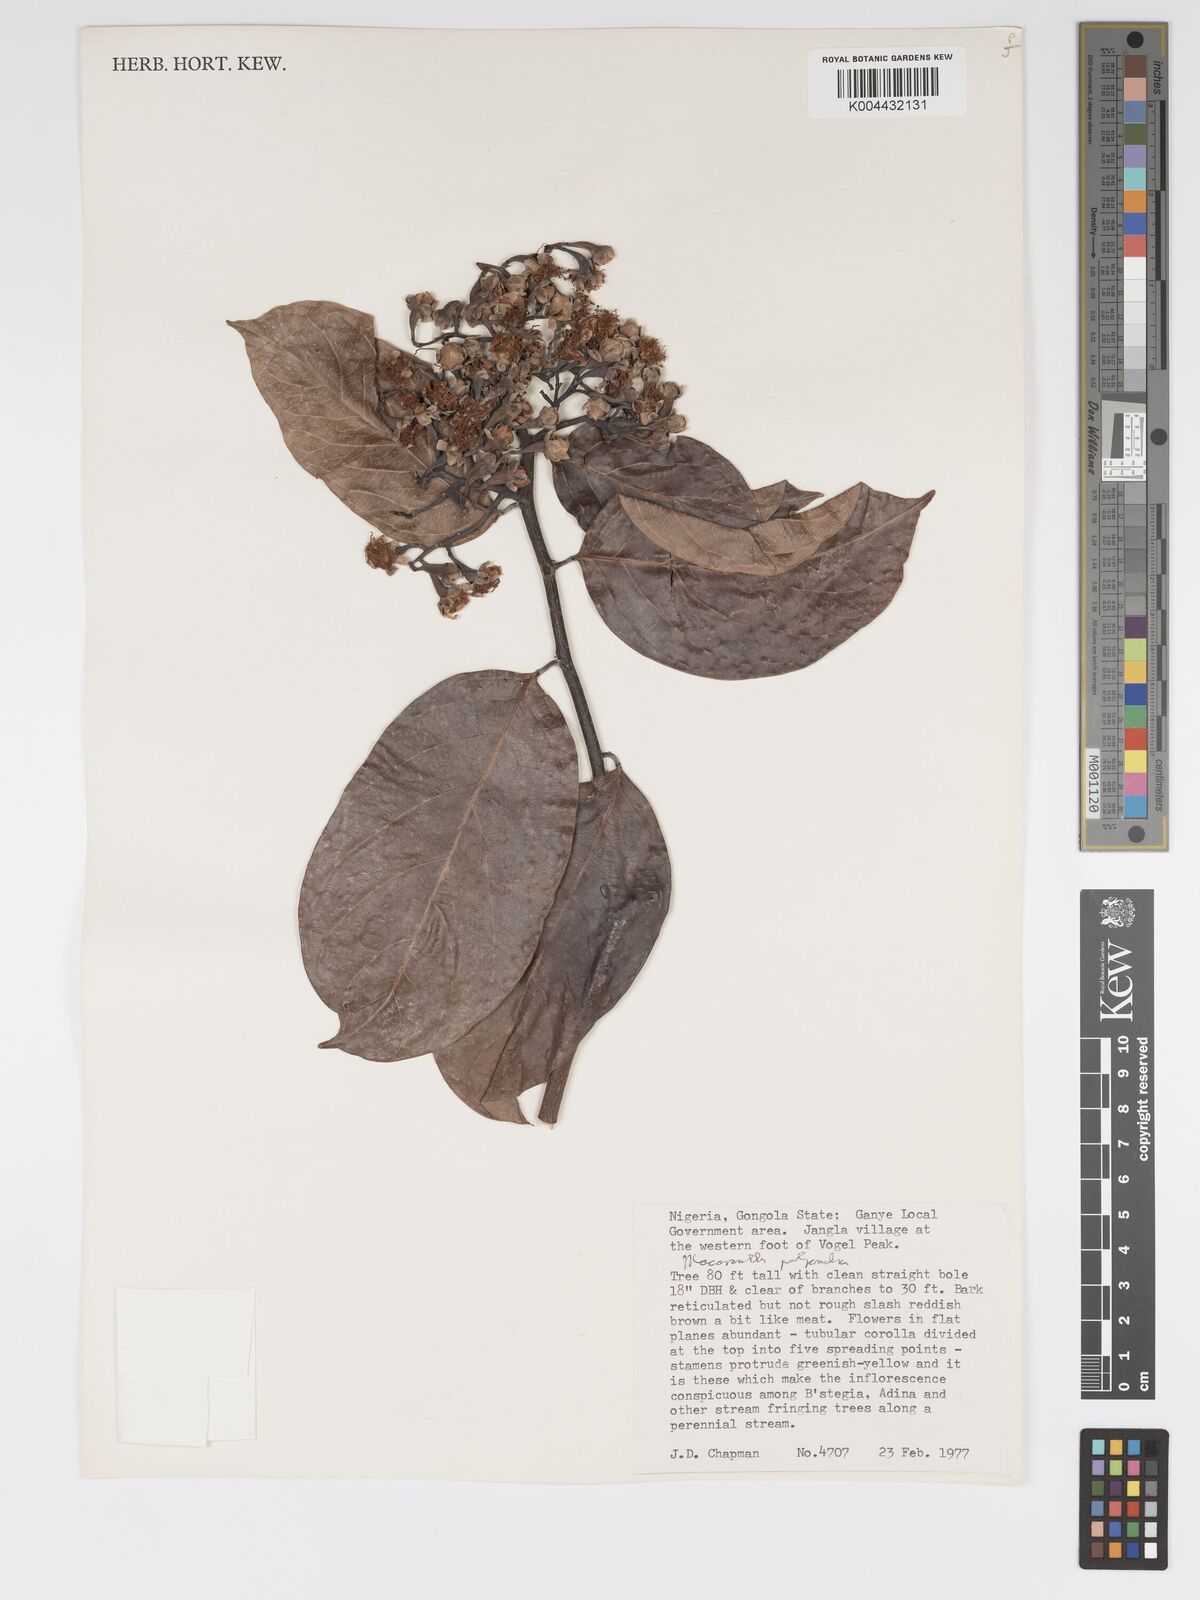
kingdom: Plantae
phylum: Tracheophyta
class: Magnoliopsida
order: Malpighiales
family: Chrysobalanaceae
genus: Maranthes
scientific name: Maranthes polyandra
